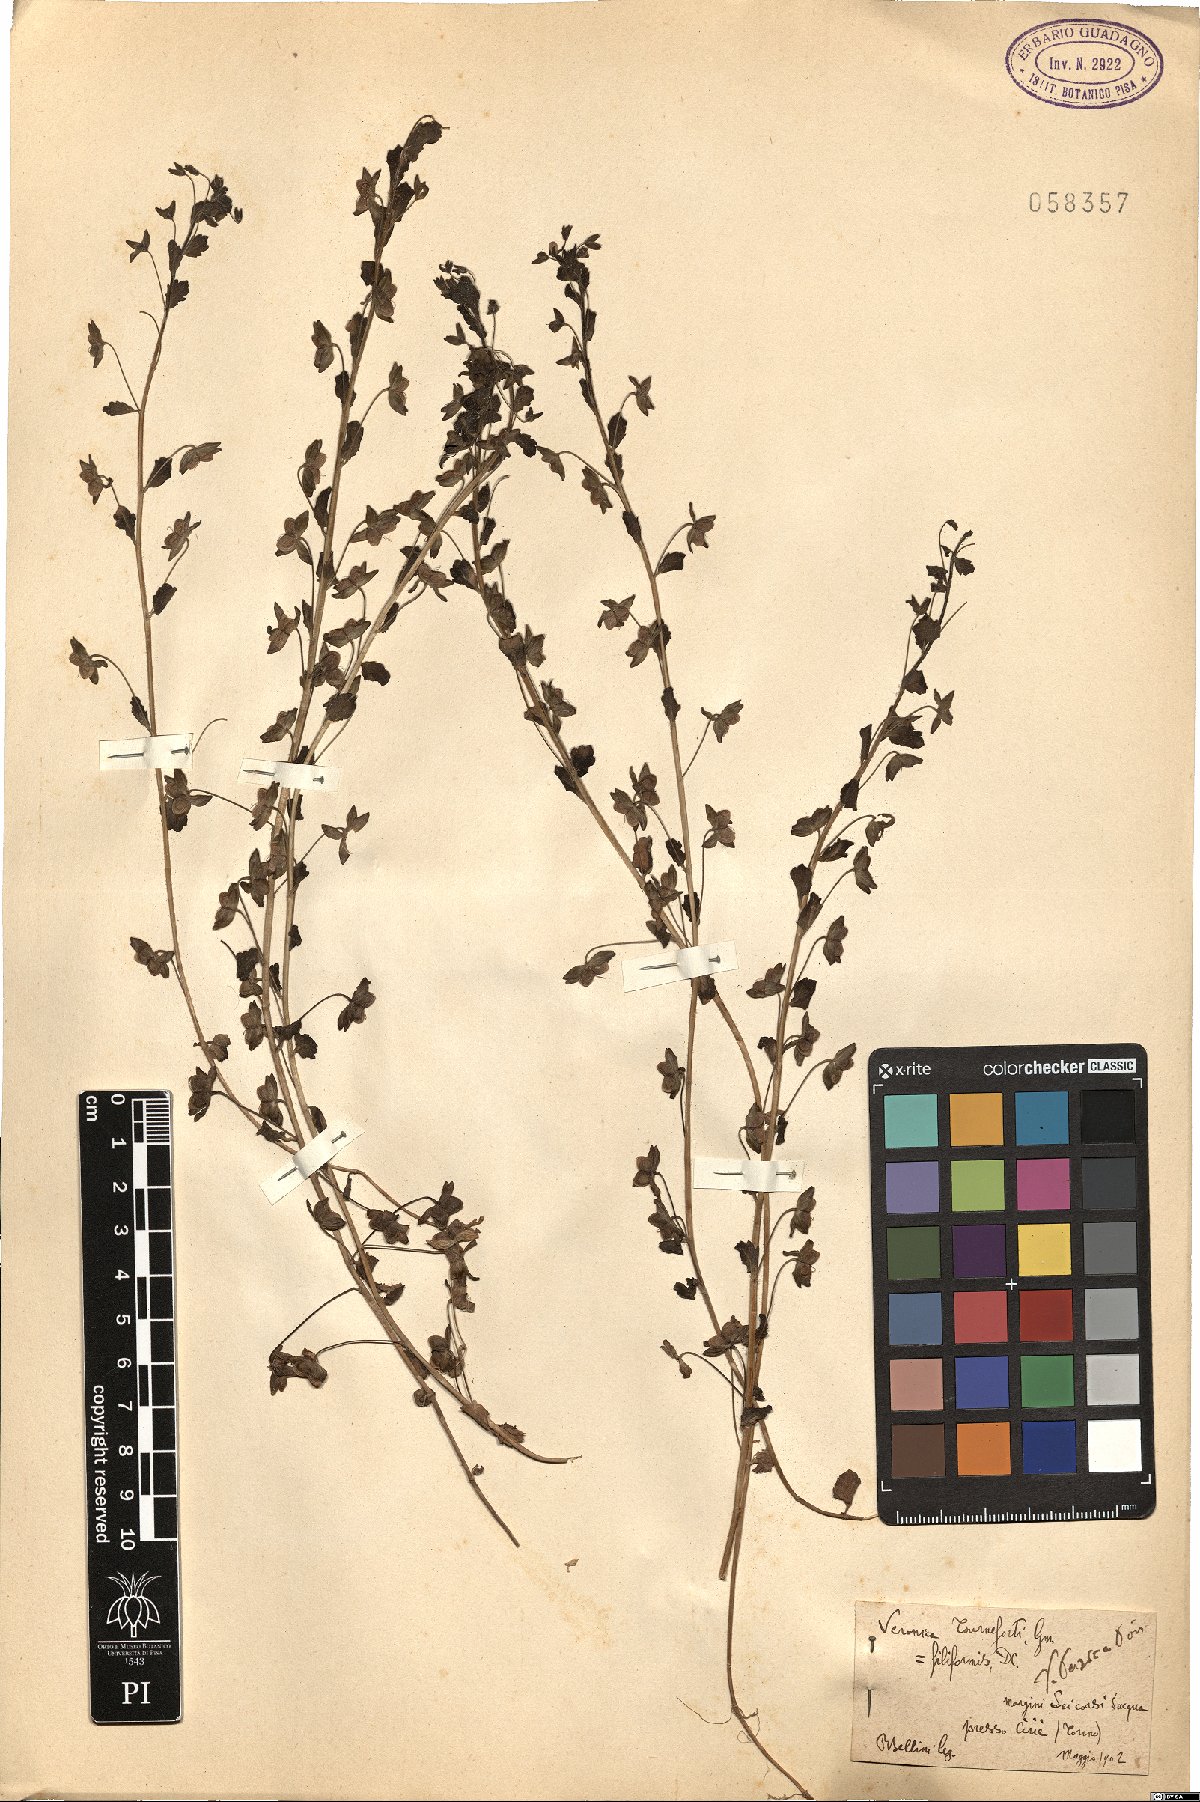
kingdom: Plantae
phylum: Tracheophyta
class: Magnoliopsida
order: Lamiales
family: Plantaginaceae
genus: Veronica
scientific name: Veronica persica
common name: Common field-speedwell
